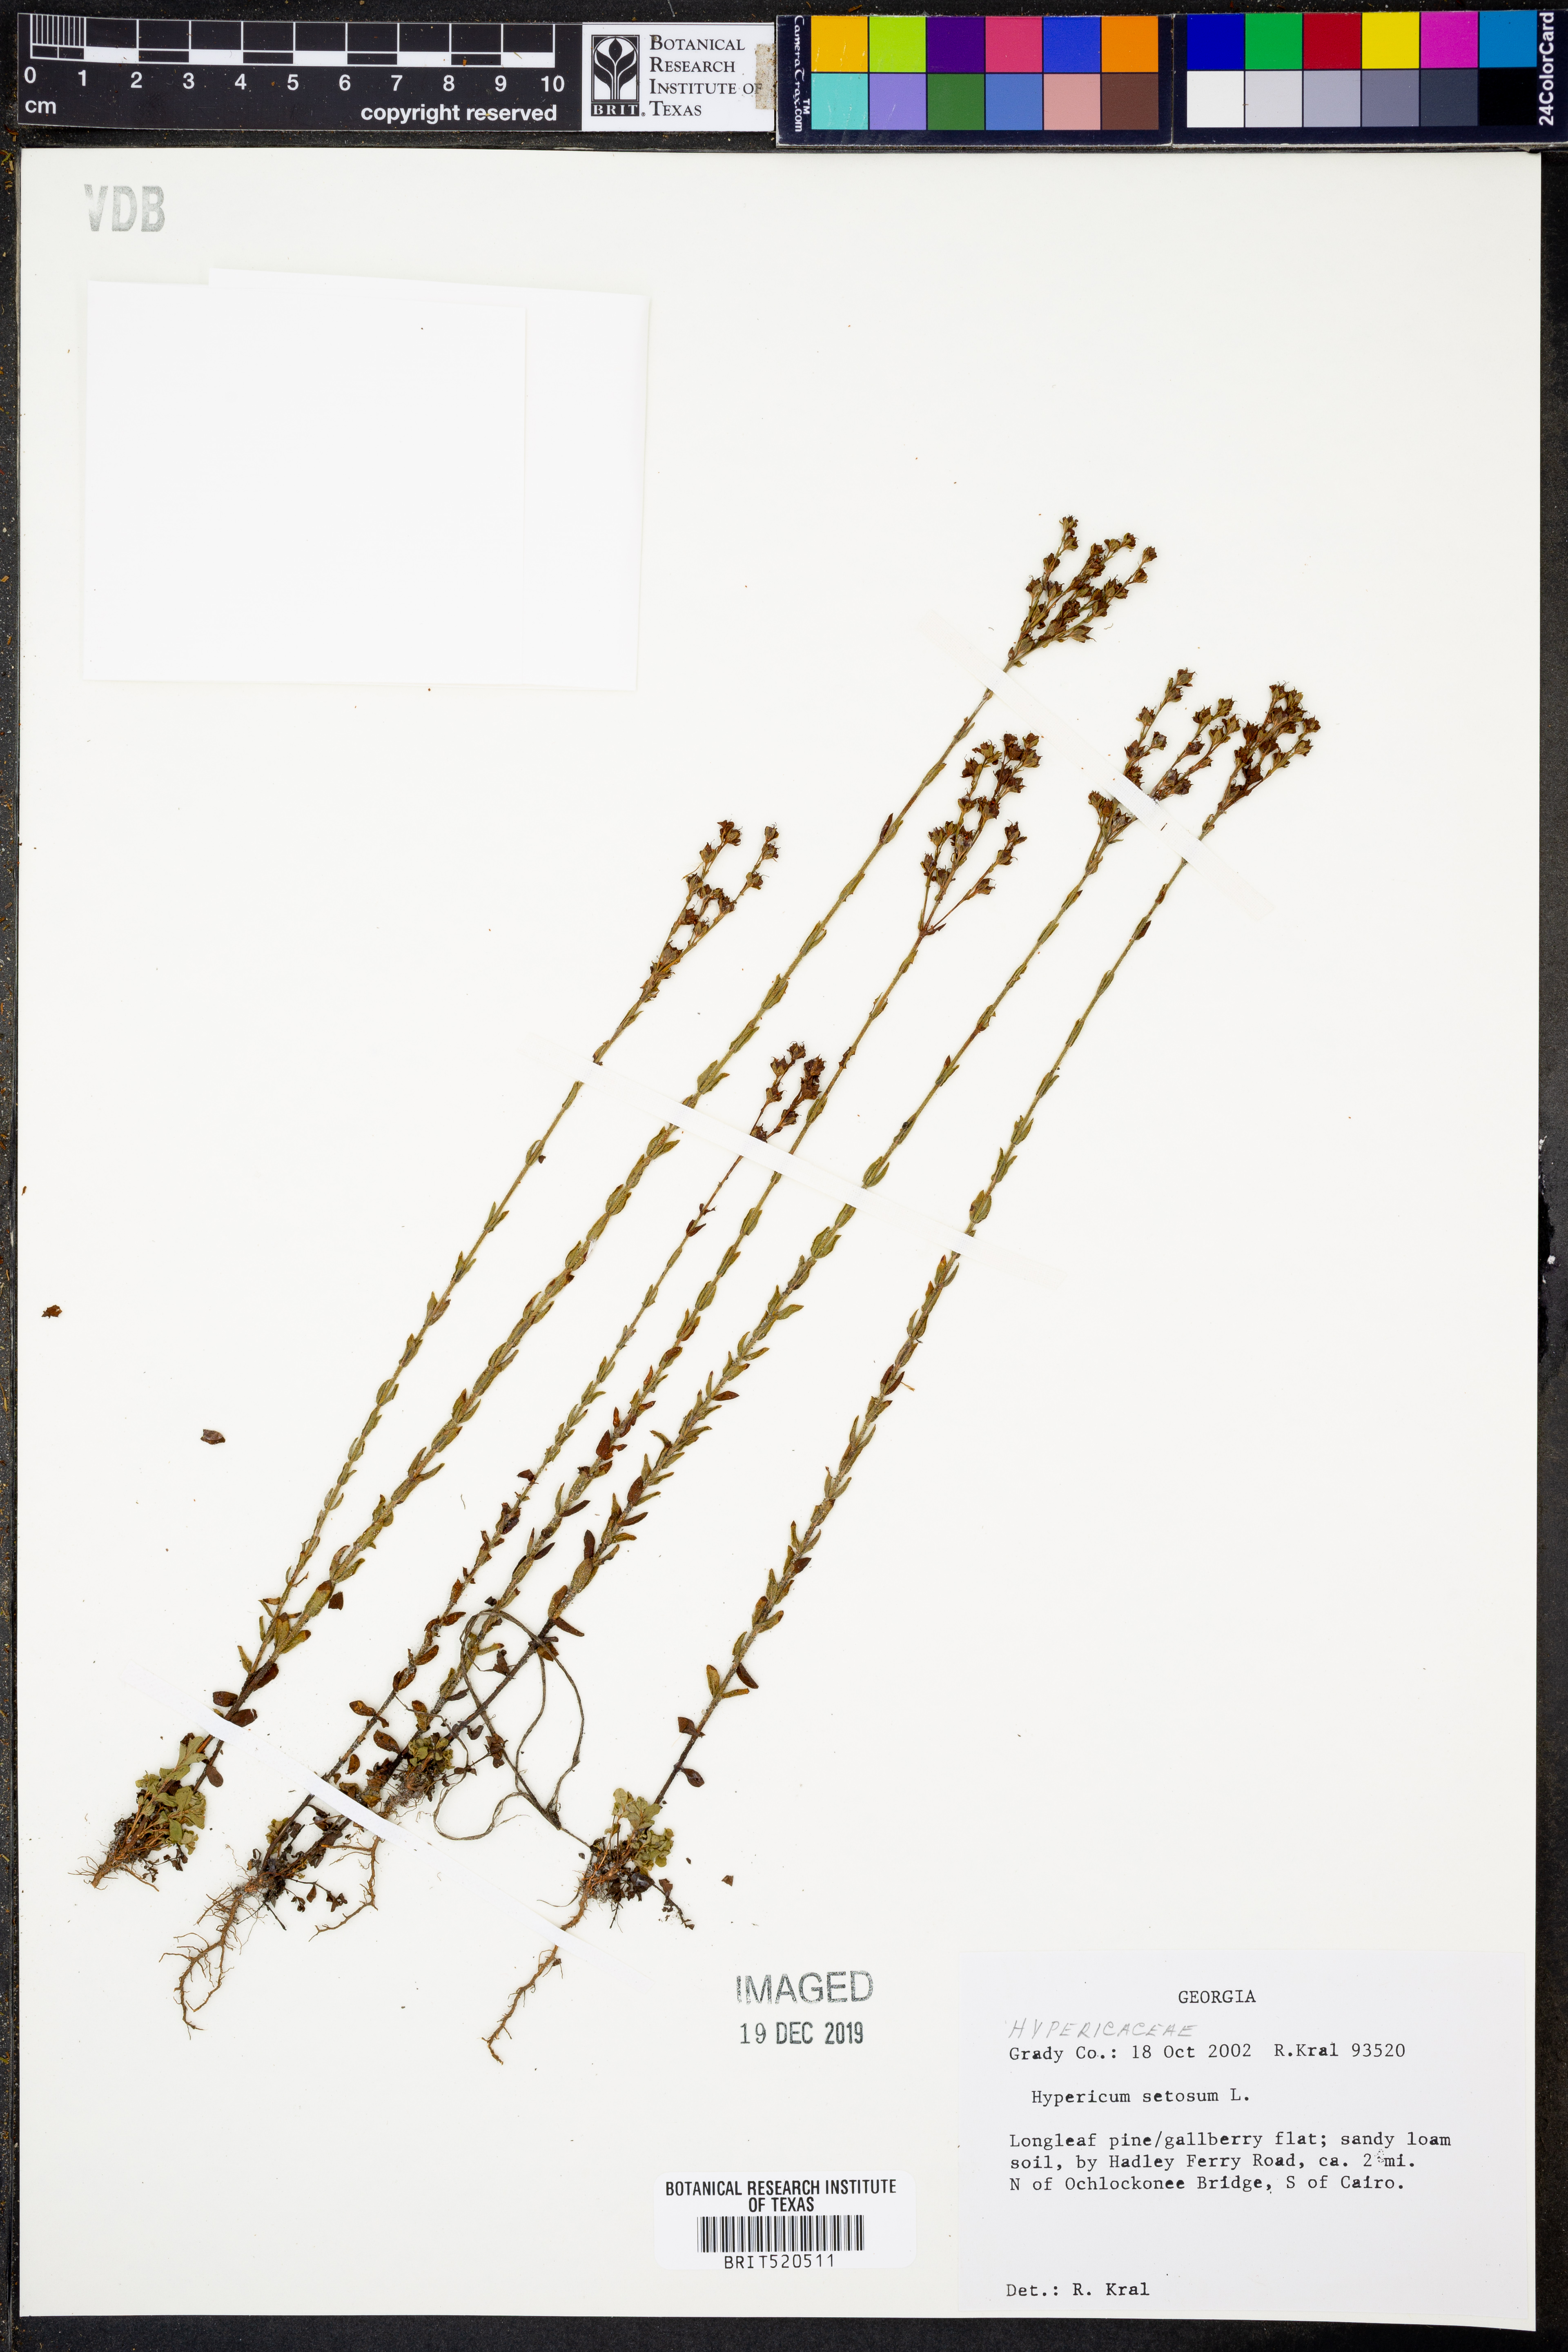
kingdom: Plantae
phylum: Tracheophyta
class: Magnoliopsida
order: Malpighiales
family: Hypericaceae
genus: Hypericum
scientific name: Hypericum setosum
